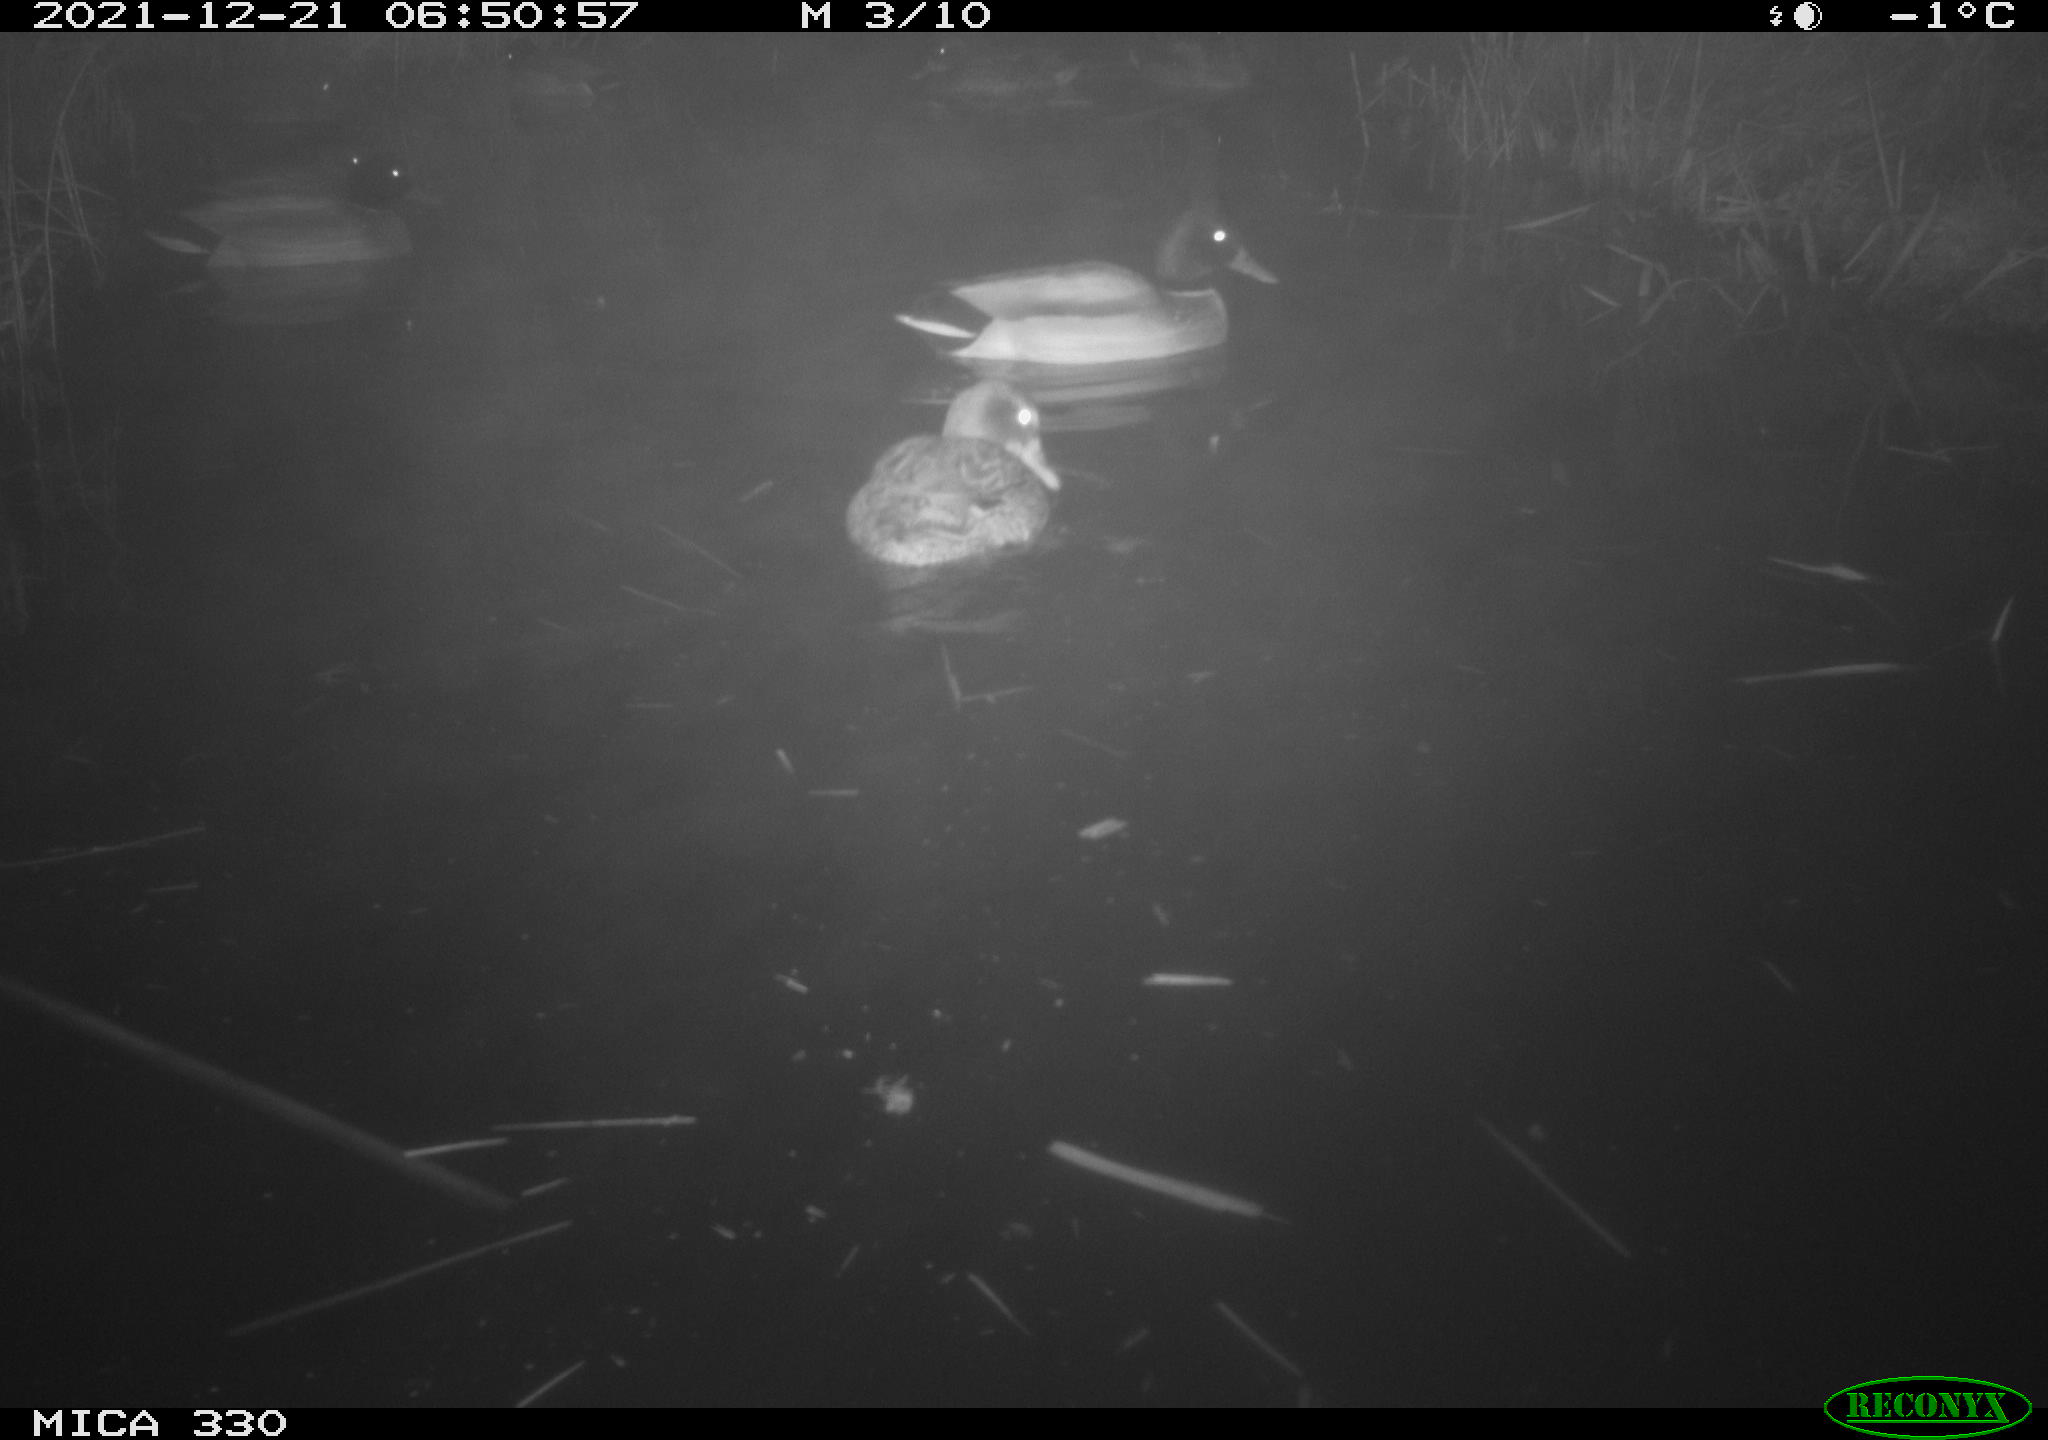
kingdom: Animalia
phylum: Chordata
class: Aves
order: Anseriformes
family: Anatidae
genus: Anas
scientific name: Anas platyrhynchos
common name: Mallard
